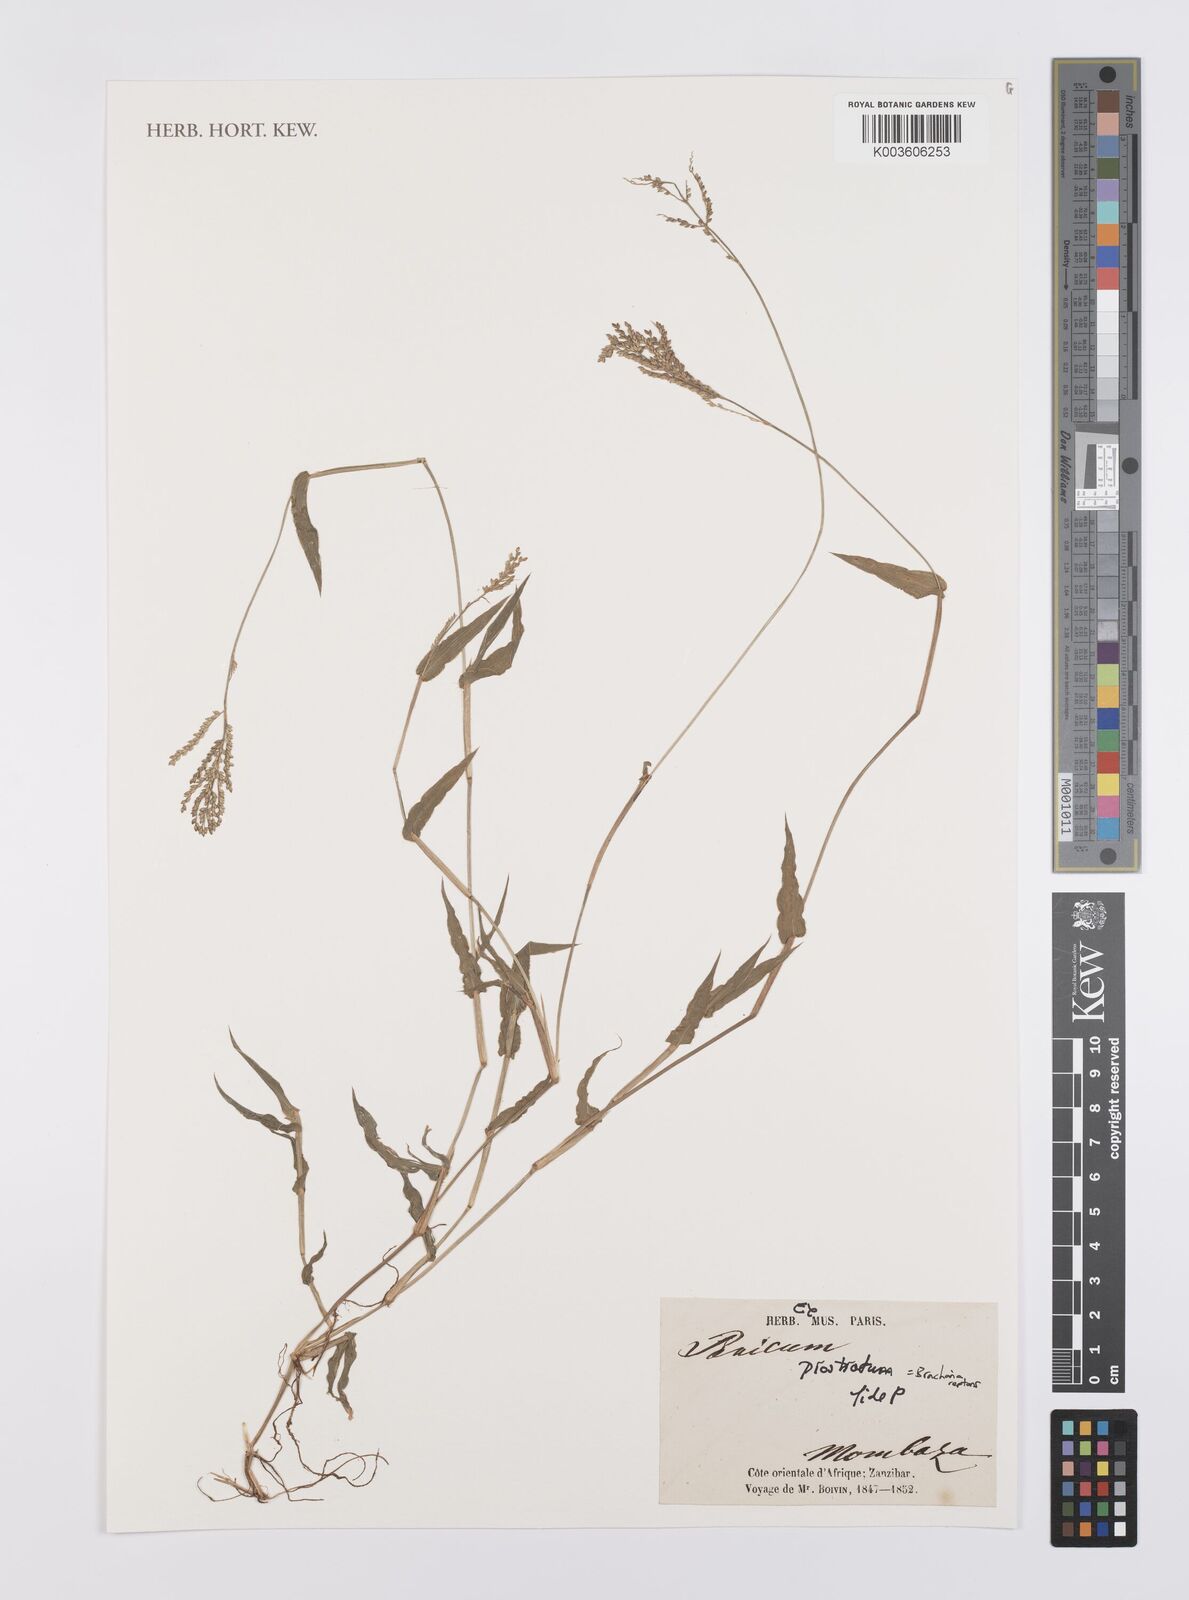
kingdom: Plantae
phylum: Tracheophyta
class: Liliopsida
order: Poales
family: Poaceae
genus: Urochloa
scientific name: Urochloa reptans
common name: Sprawling signalgrass
